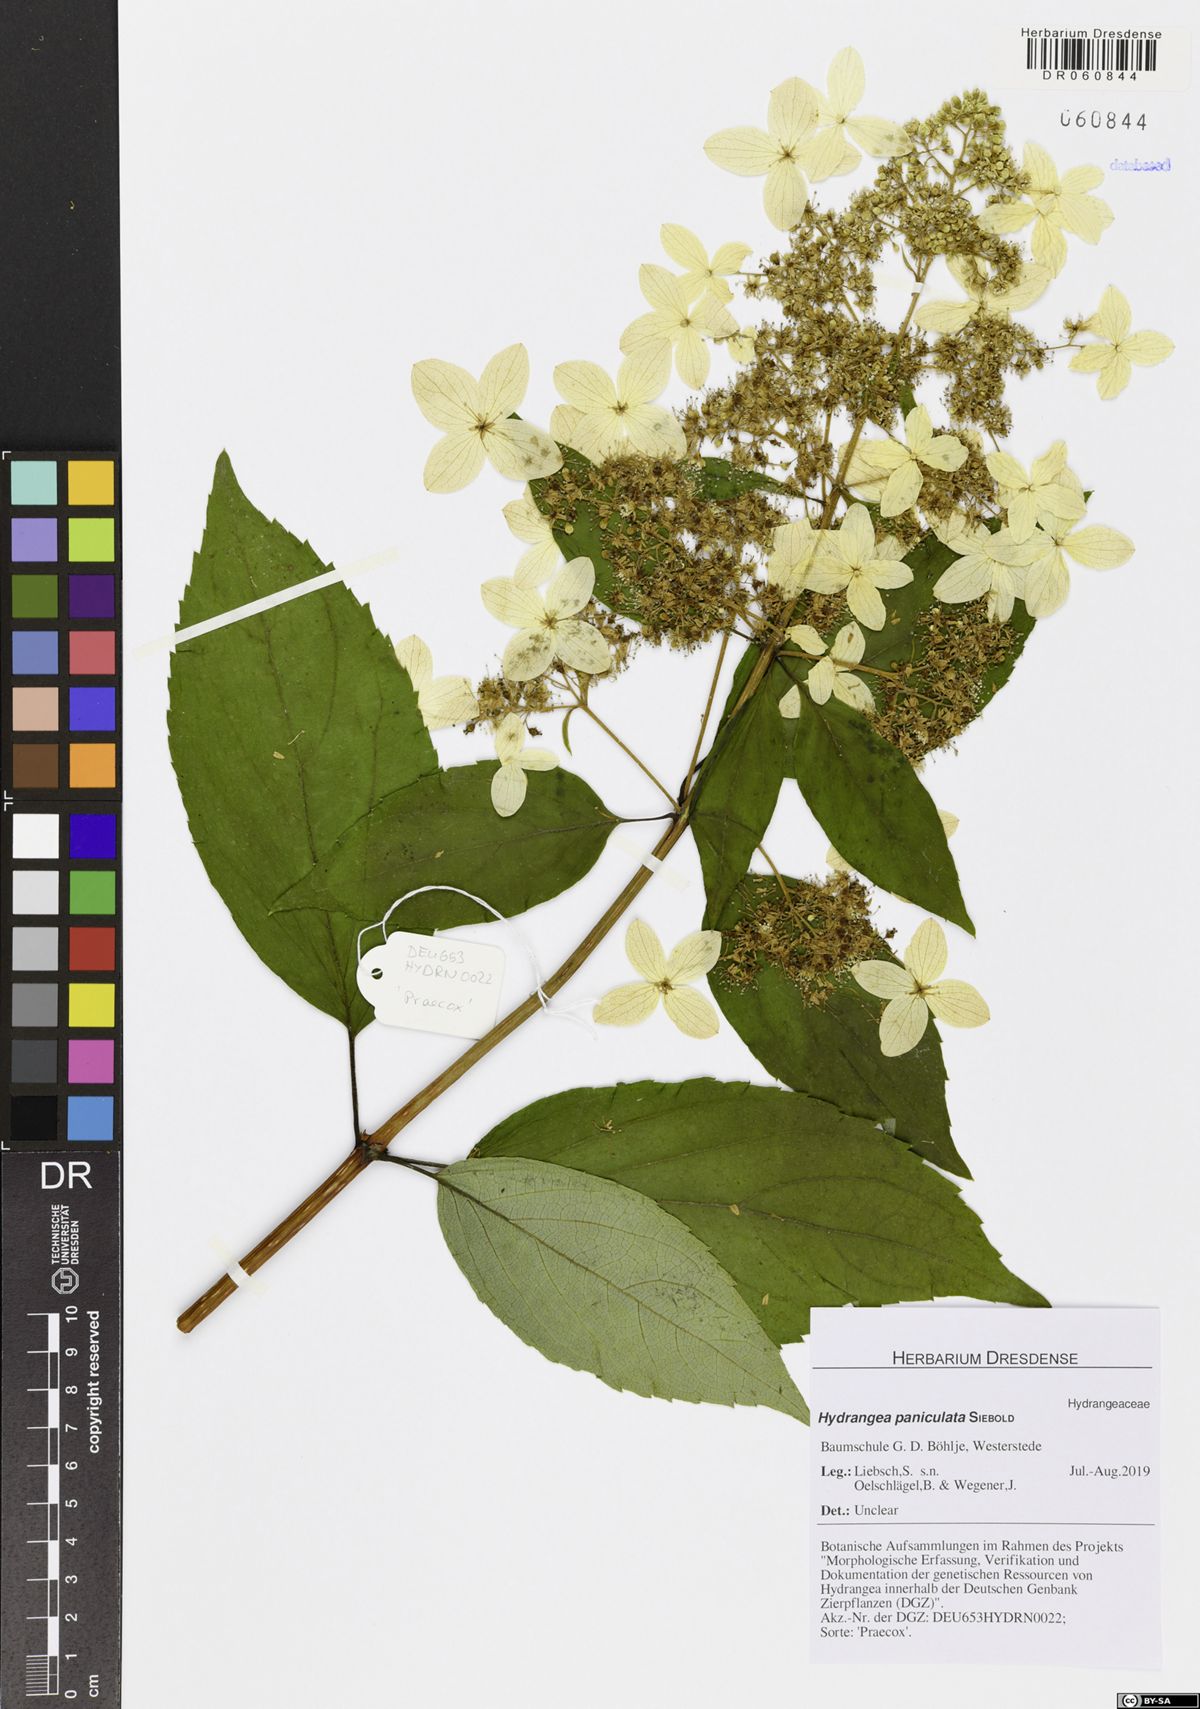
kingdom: Plantae
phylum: Tracheophyta
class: Magnoliopsida
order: Cornales
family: Hydrangeaceae
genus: Hydrangea
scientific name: Hydrangea paniculata
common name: Panicled hydrangea
